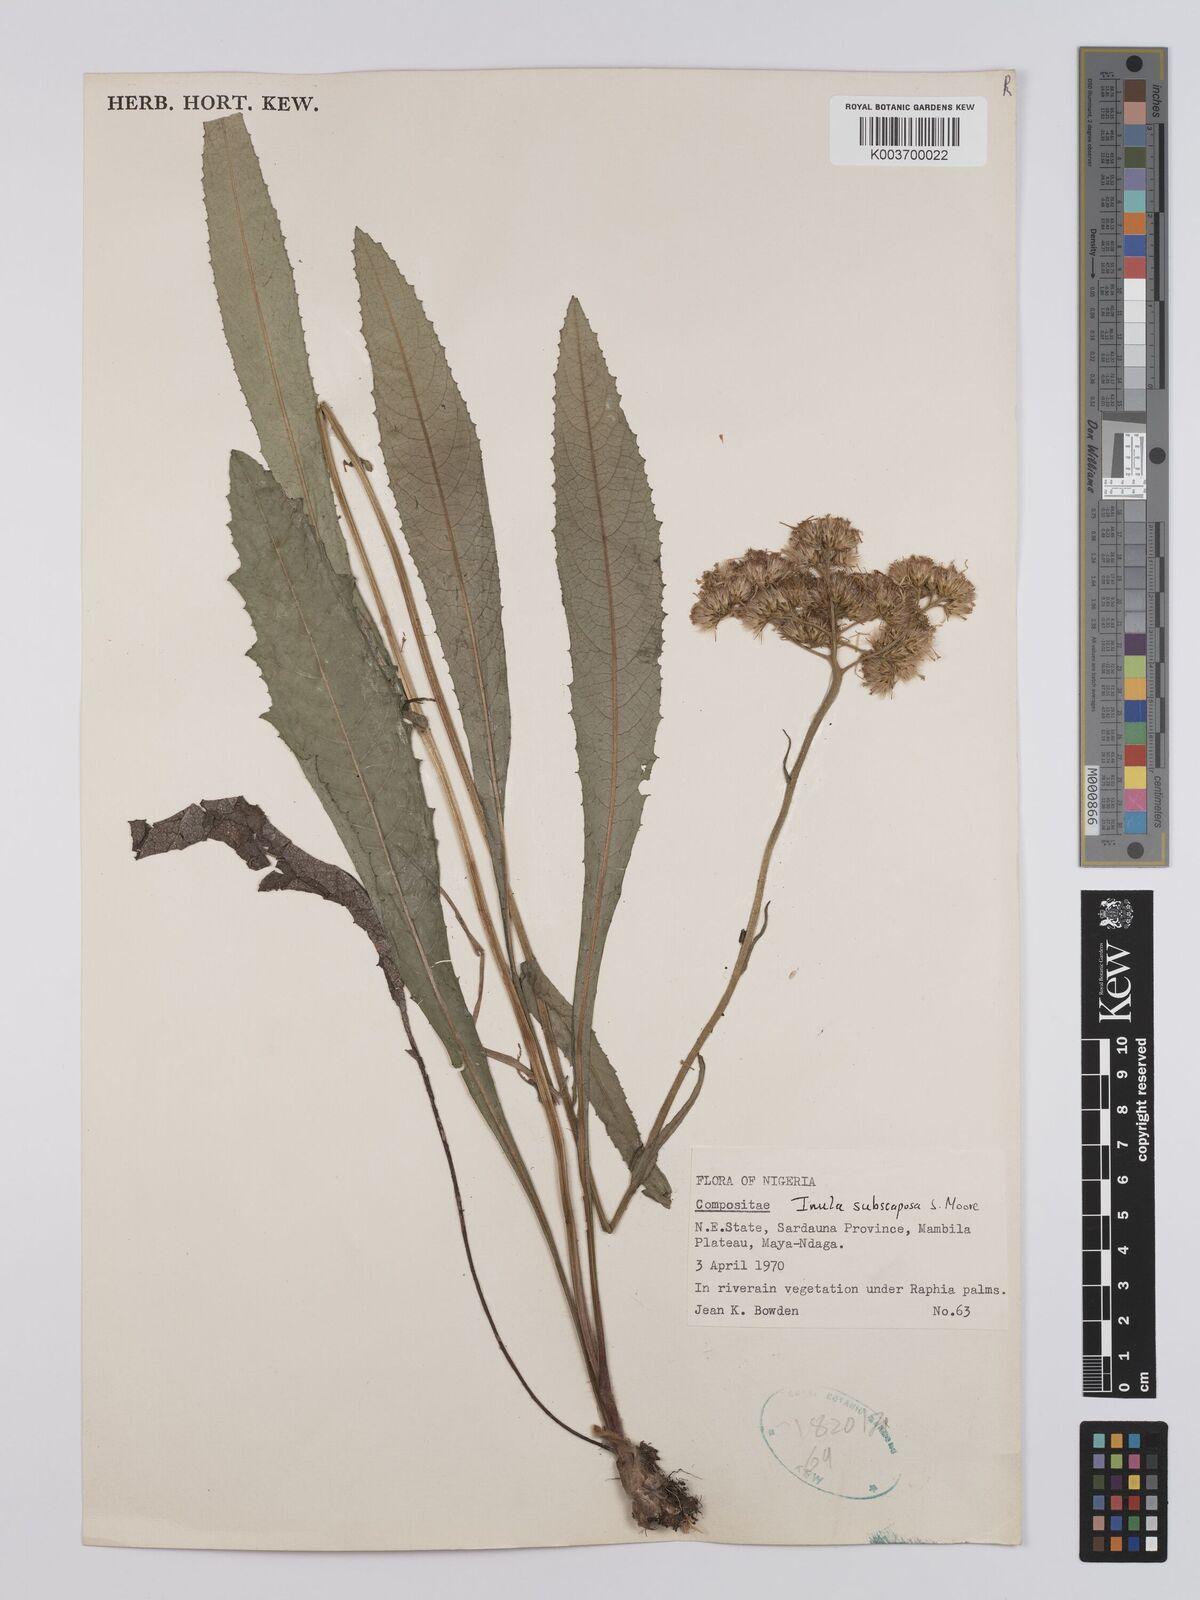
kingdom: Plantae
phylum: Tracheophyta
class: Magnoliopsida
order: Asterales
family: Asteraceae
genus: Monactinocephalus
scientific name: Monactinocephalus paniculatus
